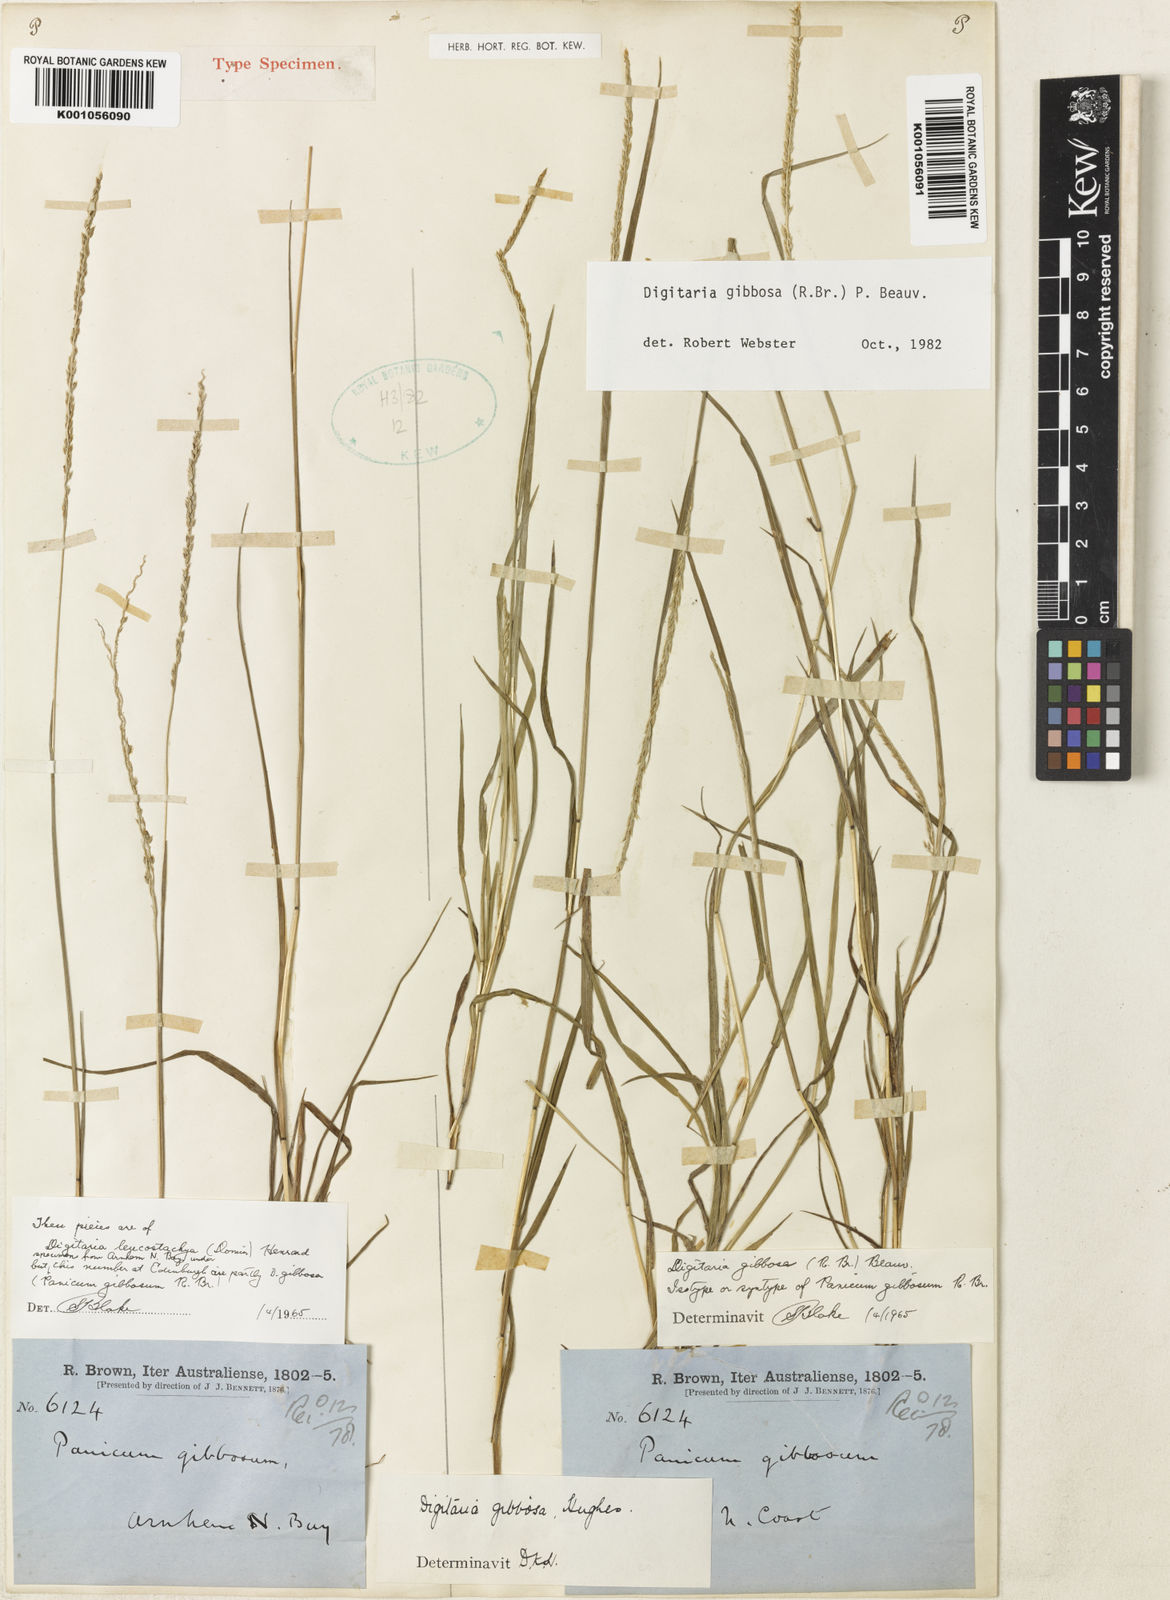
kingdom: Plantae
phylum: Tracheophyta
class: Liliopsida
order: Poales
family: Poaceae
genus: Digitaria
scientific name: Digitaria gibbosa
